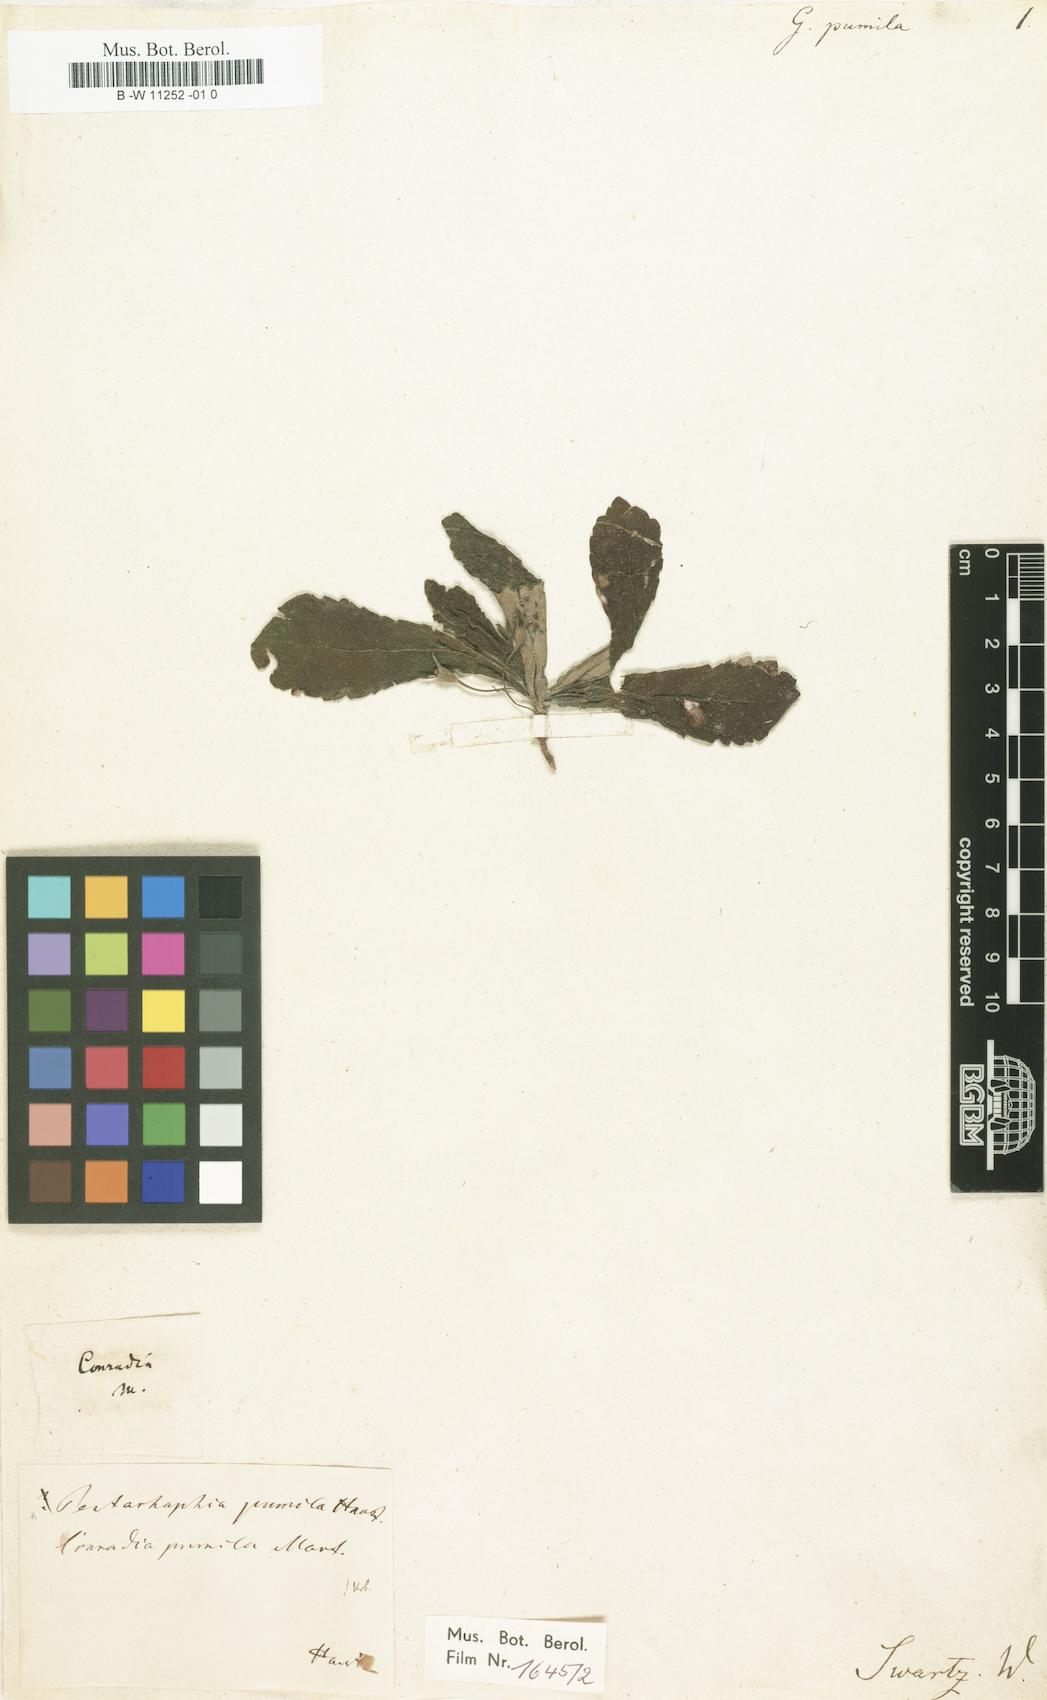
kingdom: Plantae
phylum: Tracheophyta
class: Magnoliopsida
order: Lamiales
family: Gesneriaceae
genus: Gesneria
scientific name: Gesneria pumila
